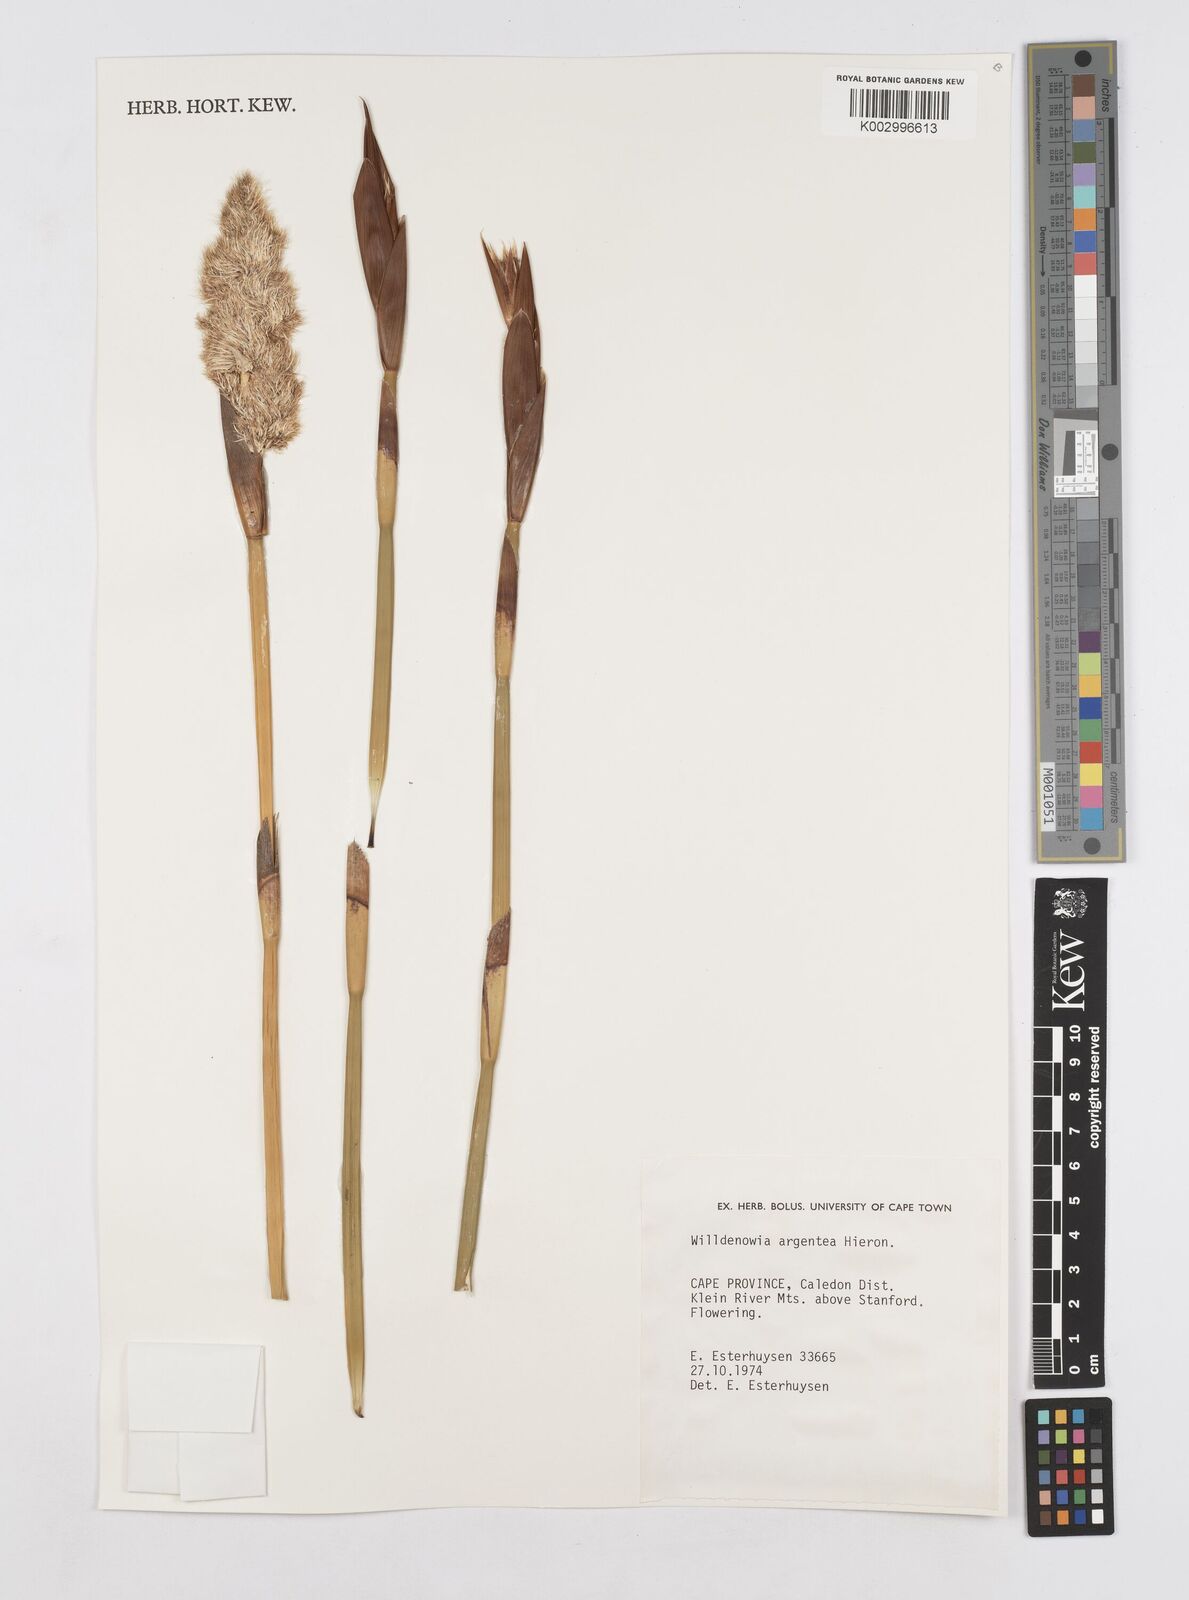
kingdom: Plantae
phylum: Tracheophyta
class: Liliopsida
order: Poales
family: Restionaceae
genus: Ceratocaryum
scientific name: Ceratocaryum argenteum
